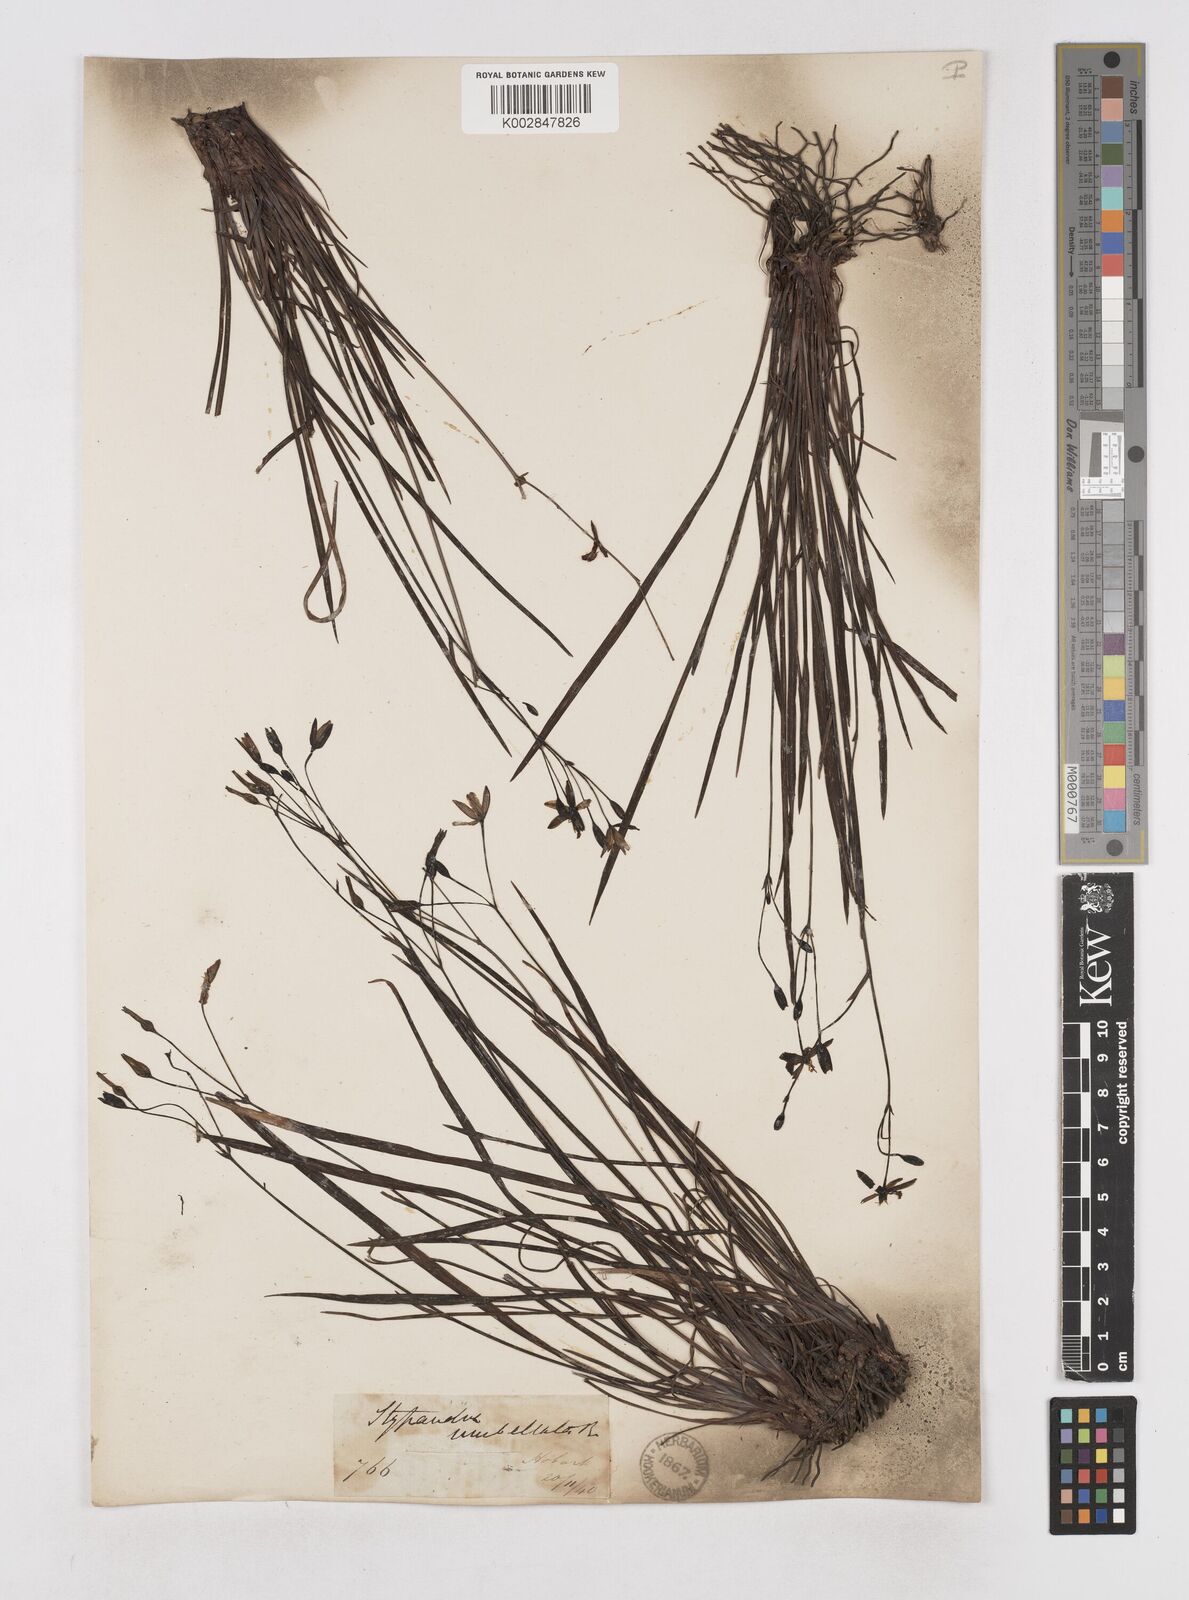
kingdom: Plantae
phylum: Tracheophyta
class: Liliopsida
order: Asparagales
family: Asphodelaceae
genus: Thelionema
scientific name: Thelionema umbellatum
